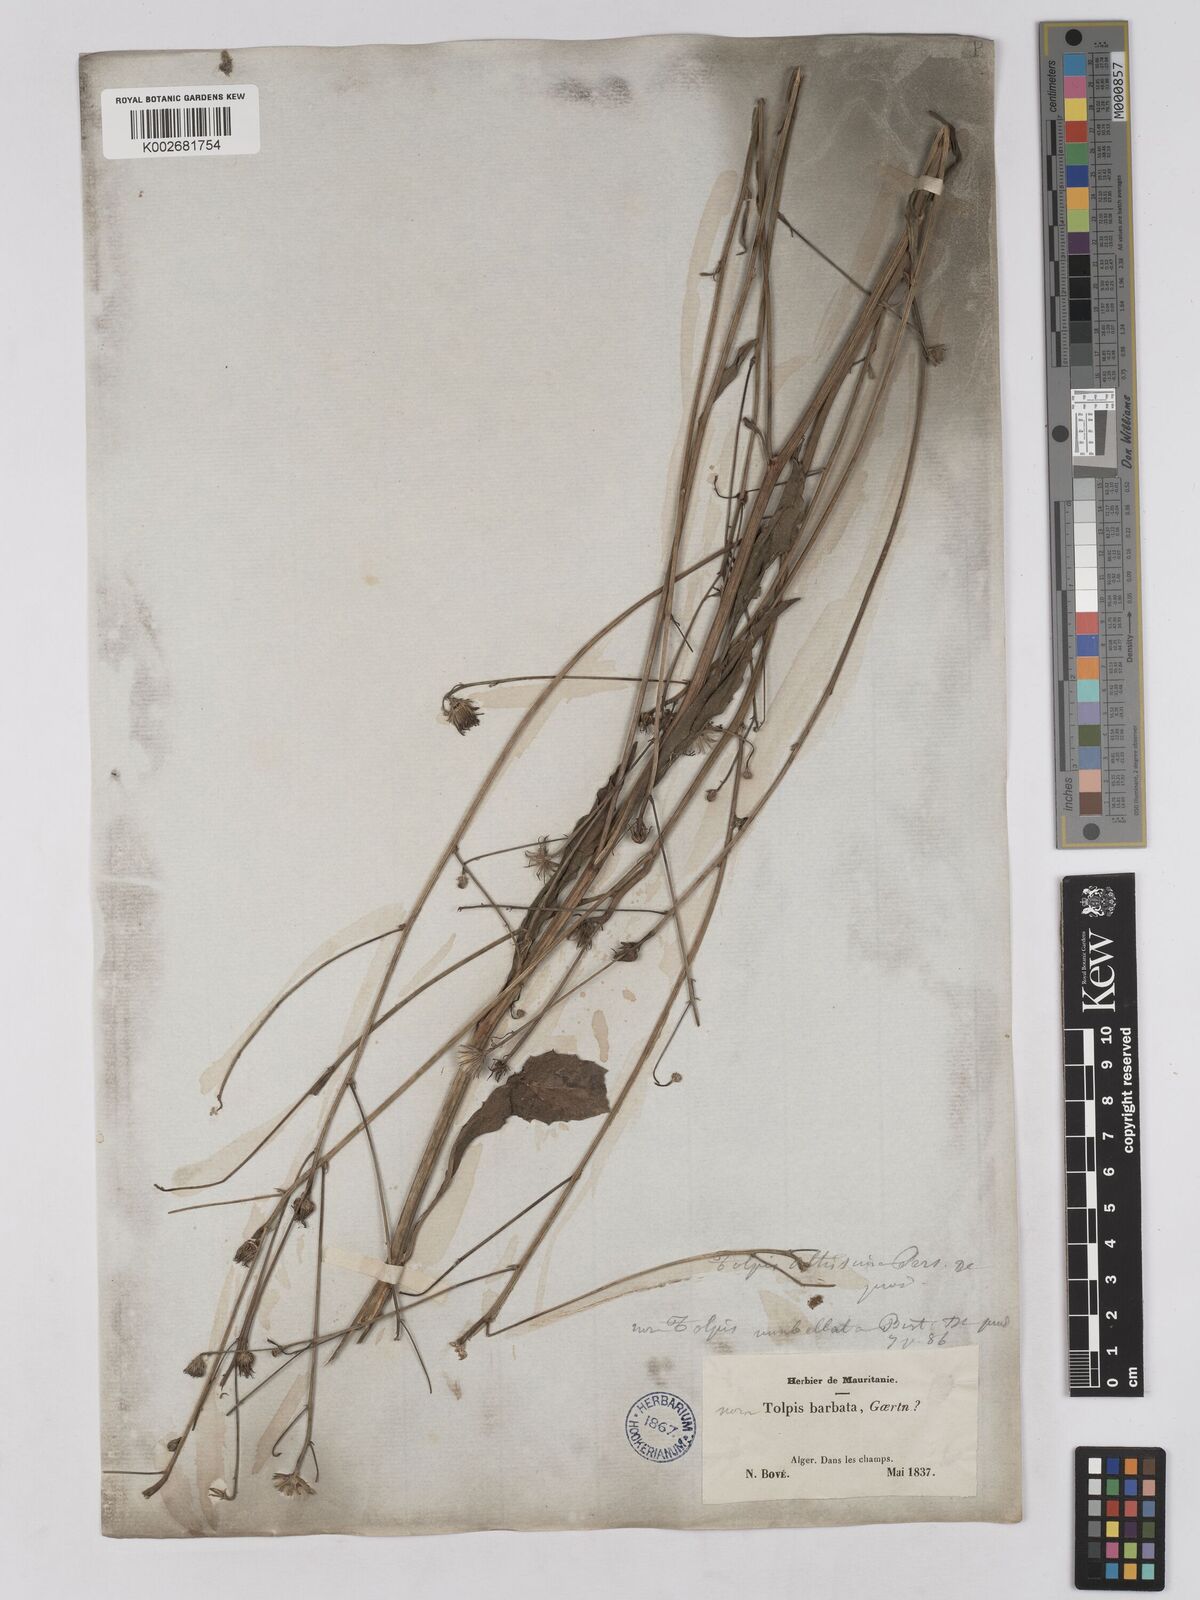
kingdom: Plantae
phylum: Tracheophyta
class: Magnoliopsida
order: Asterales
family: Asteraceae
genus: Tolpis
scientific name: Tolpis virgata
